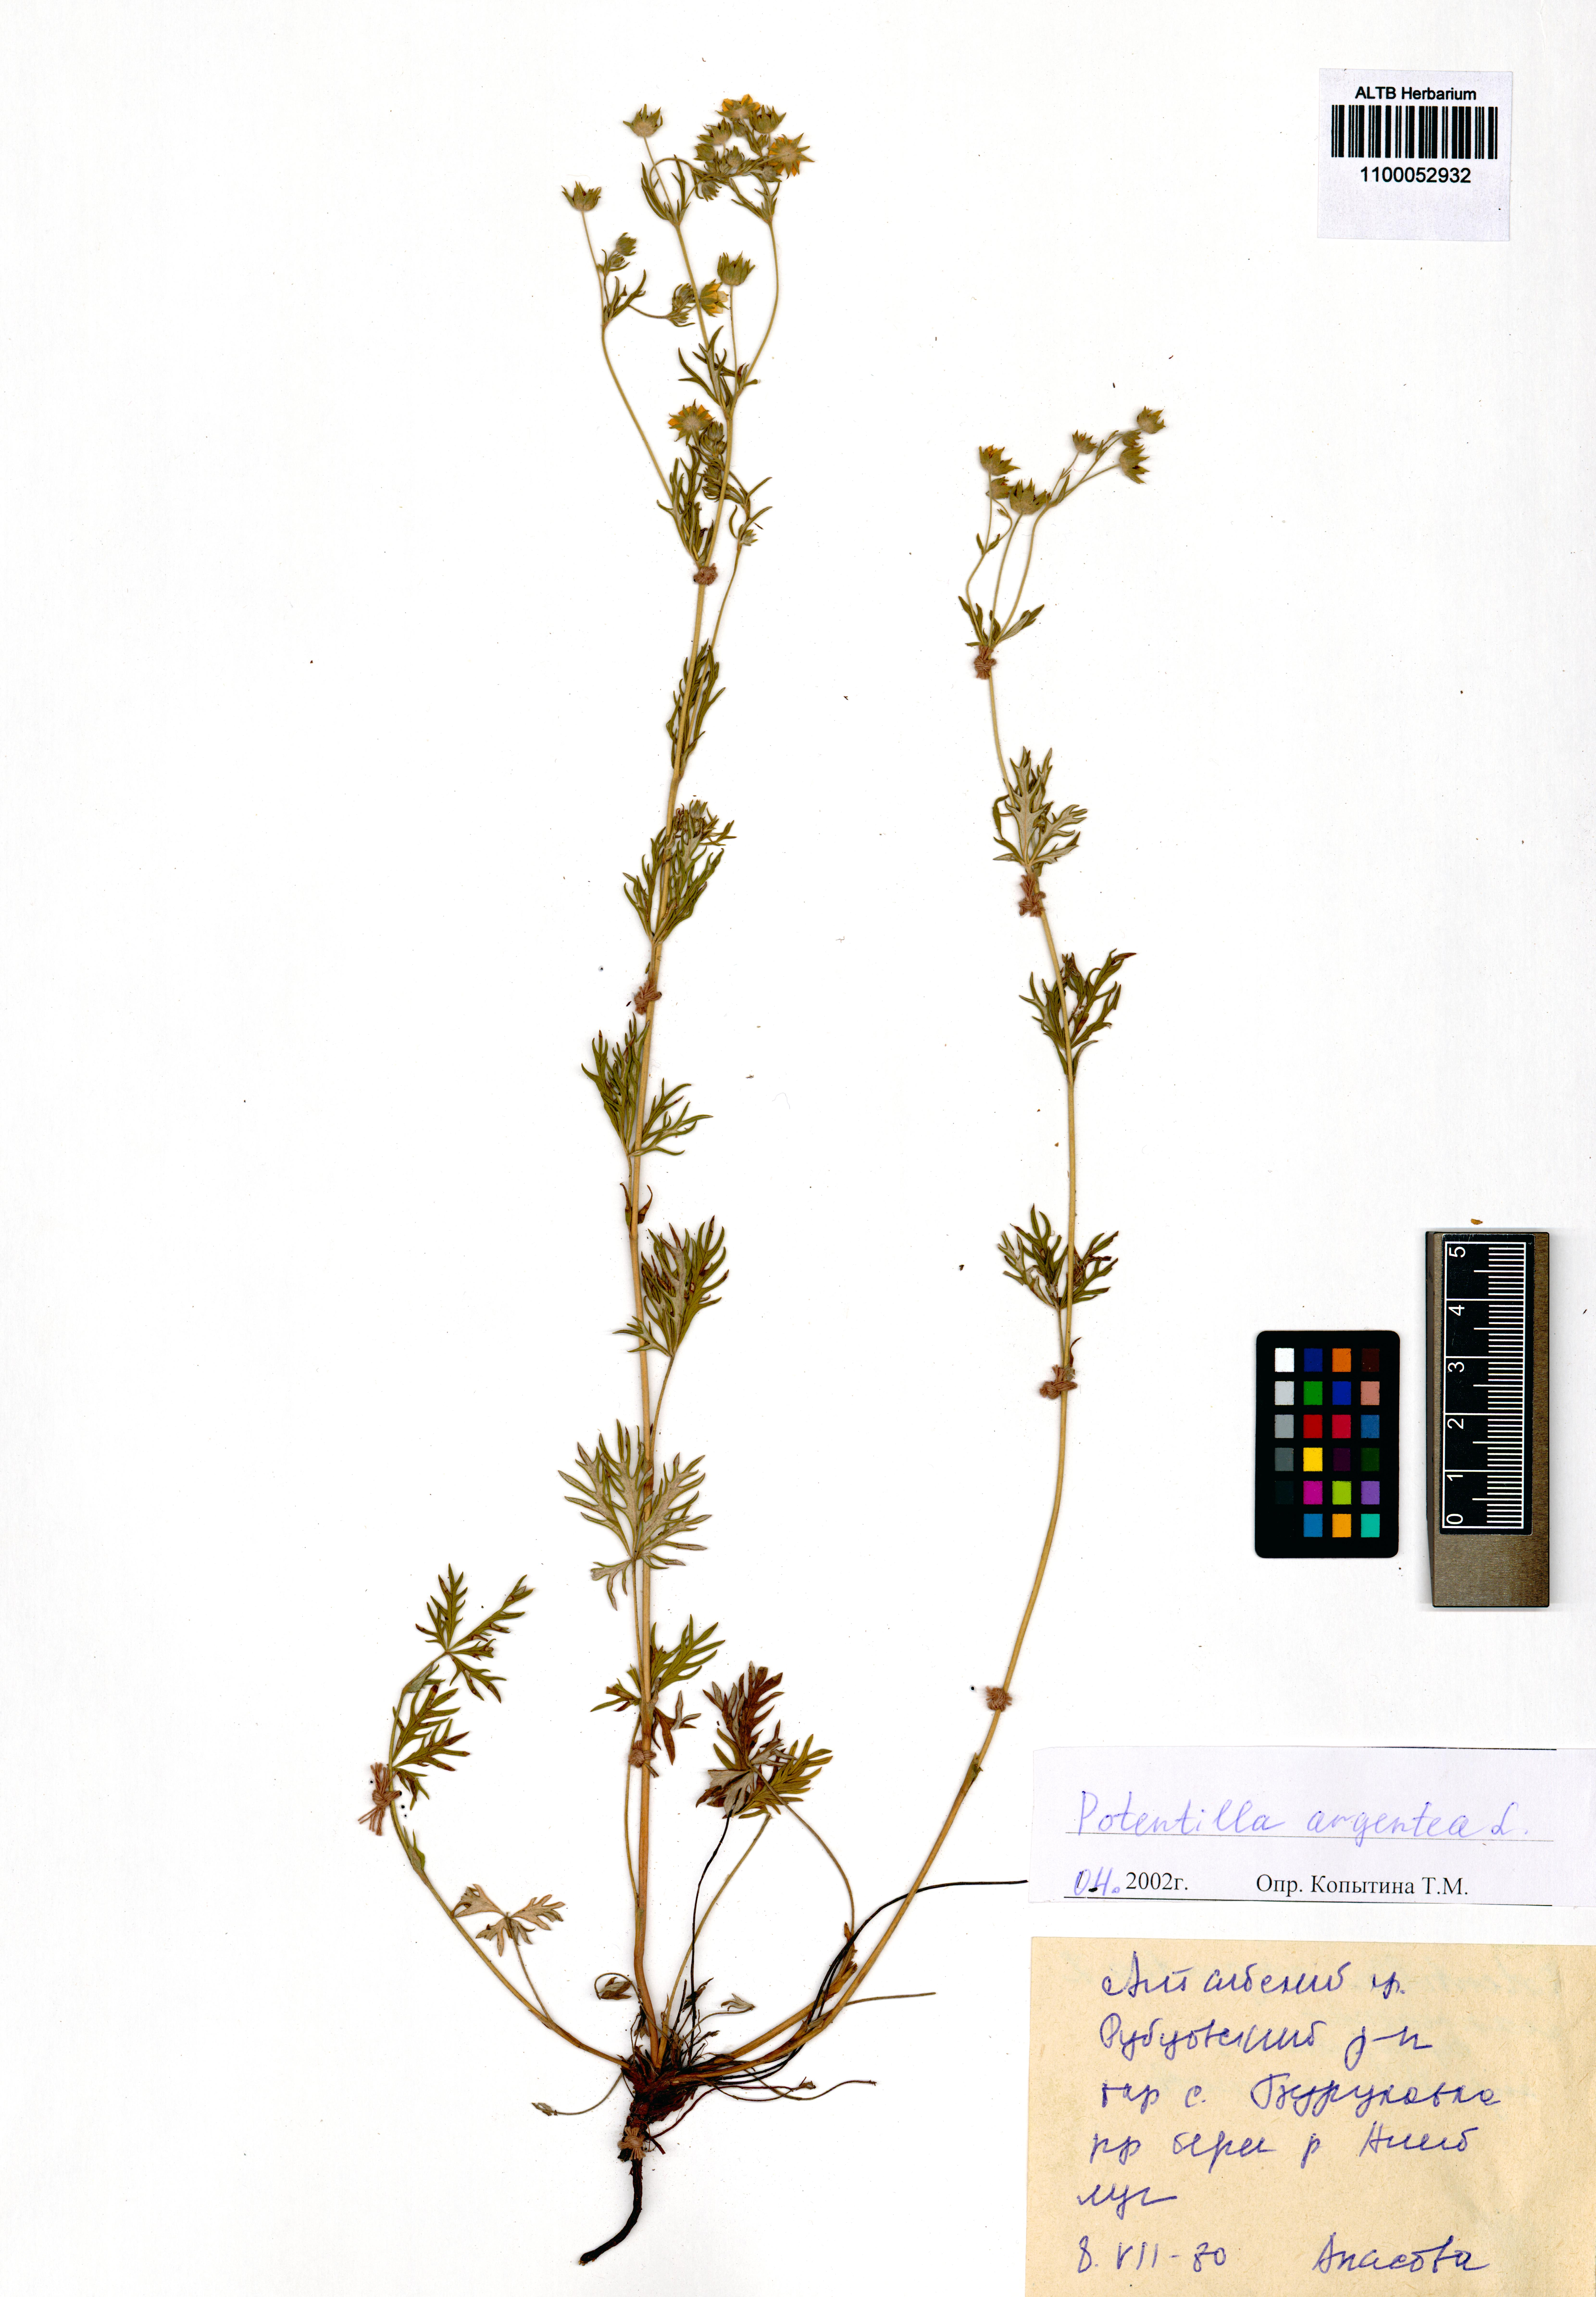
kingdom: Plantae
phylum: Tracheophyta
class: Magnoliopsida
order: Rosales
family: Rosaceae
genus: Potentilla
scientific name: Potentilla argentea
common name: Hoary cinquefoil
